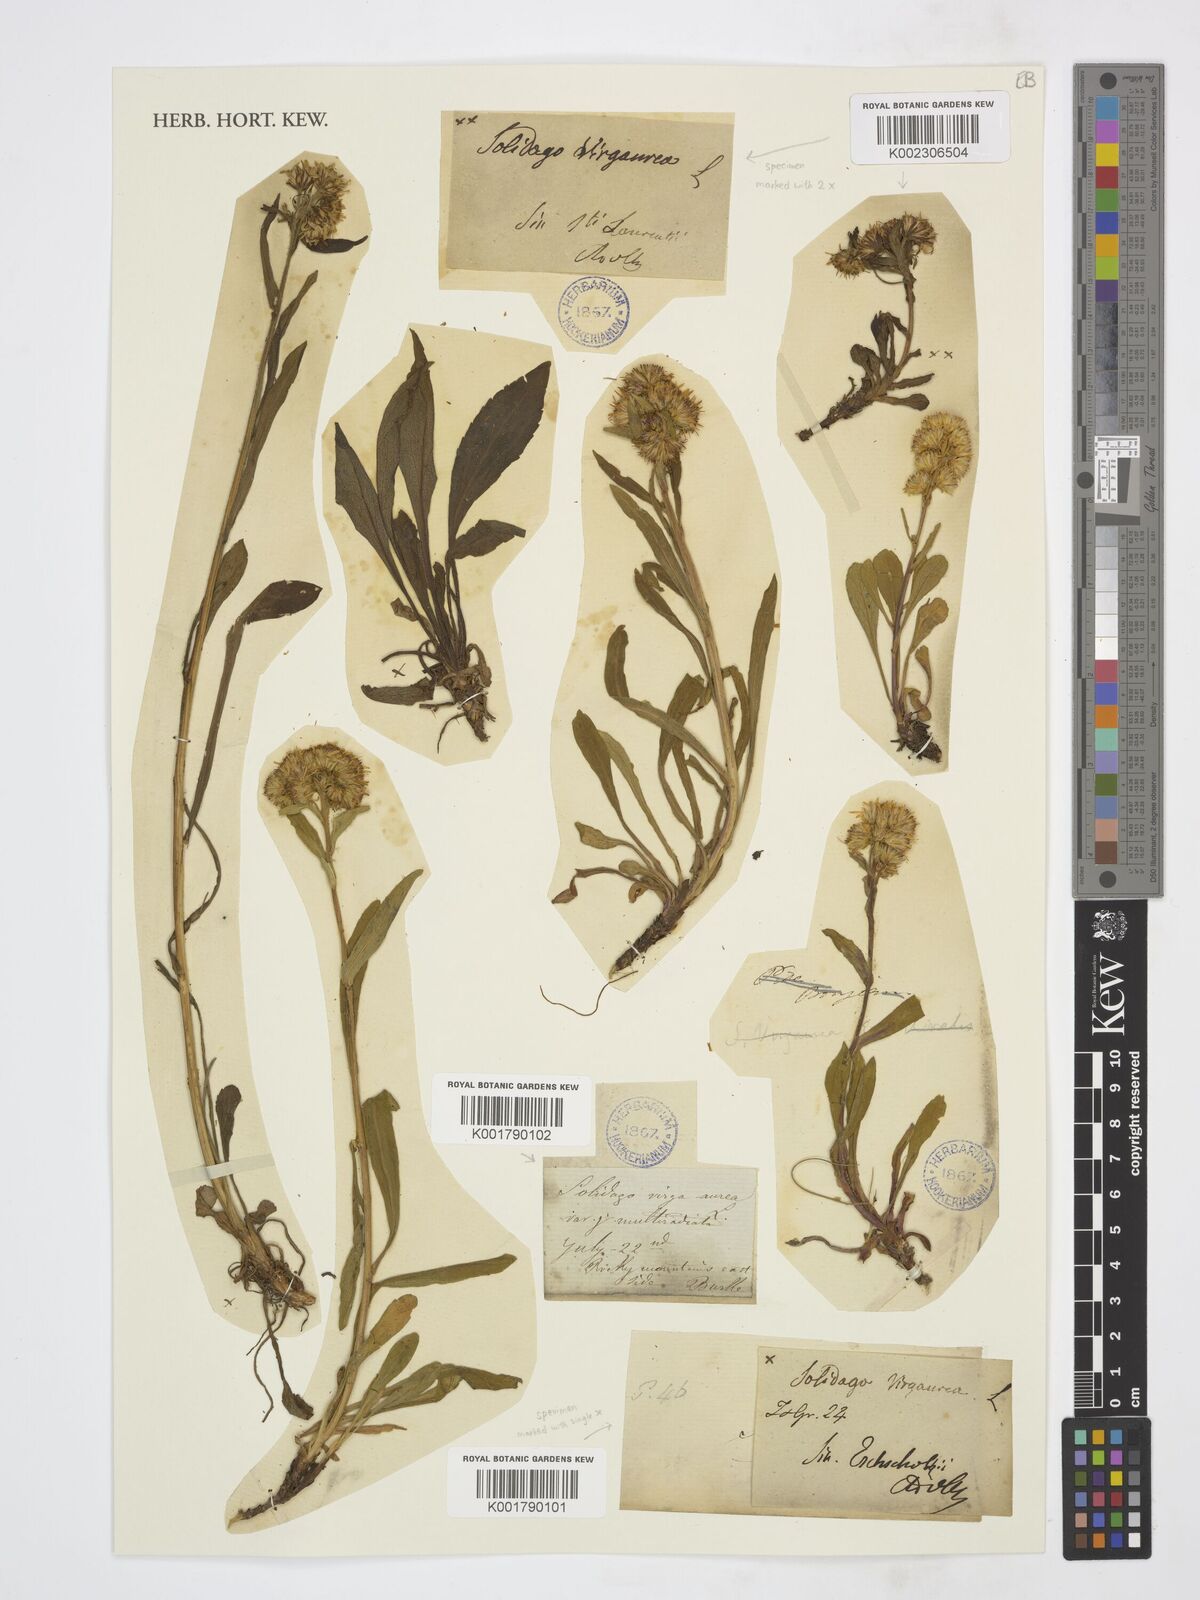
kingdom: Plantae
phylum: Tracheophyta
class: Magnoliopsida
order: Asterales
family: Asteraceae
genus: Solidago
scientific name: Solidago multiradiata
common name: Northern goldenrod
